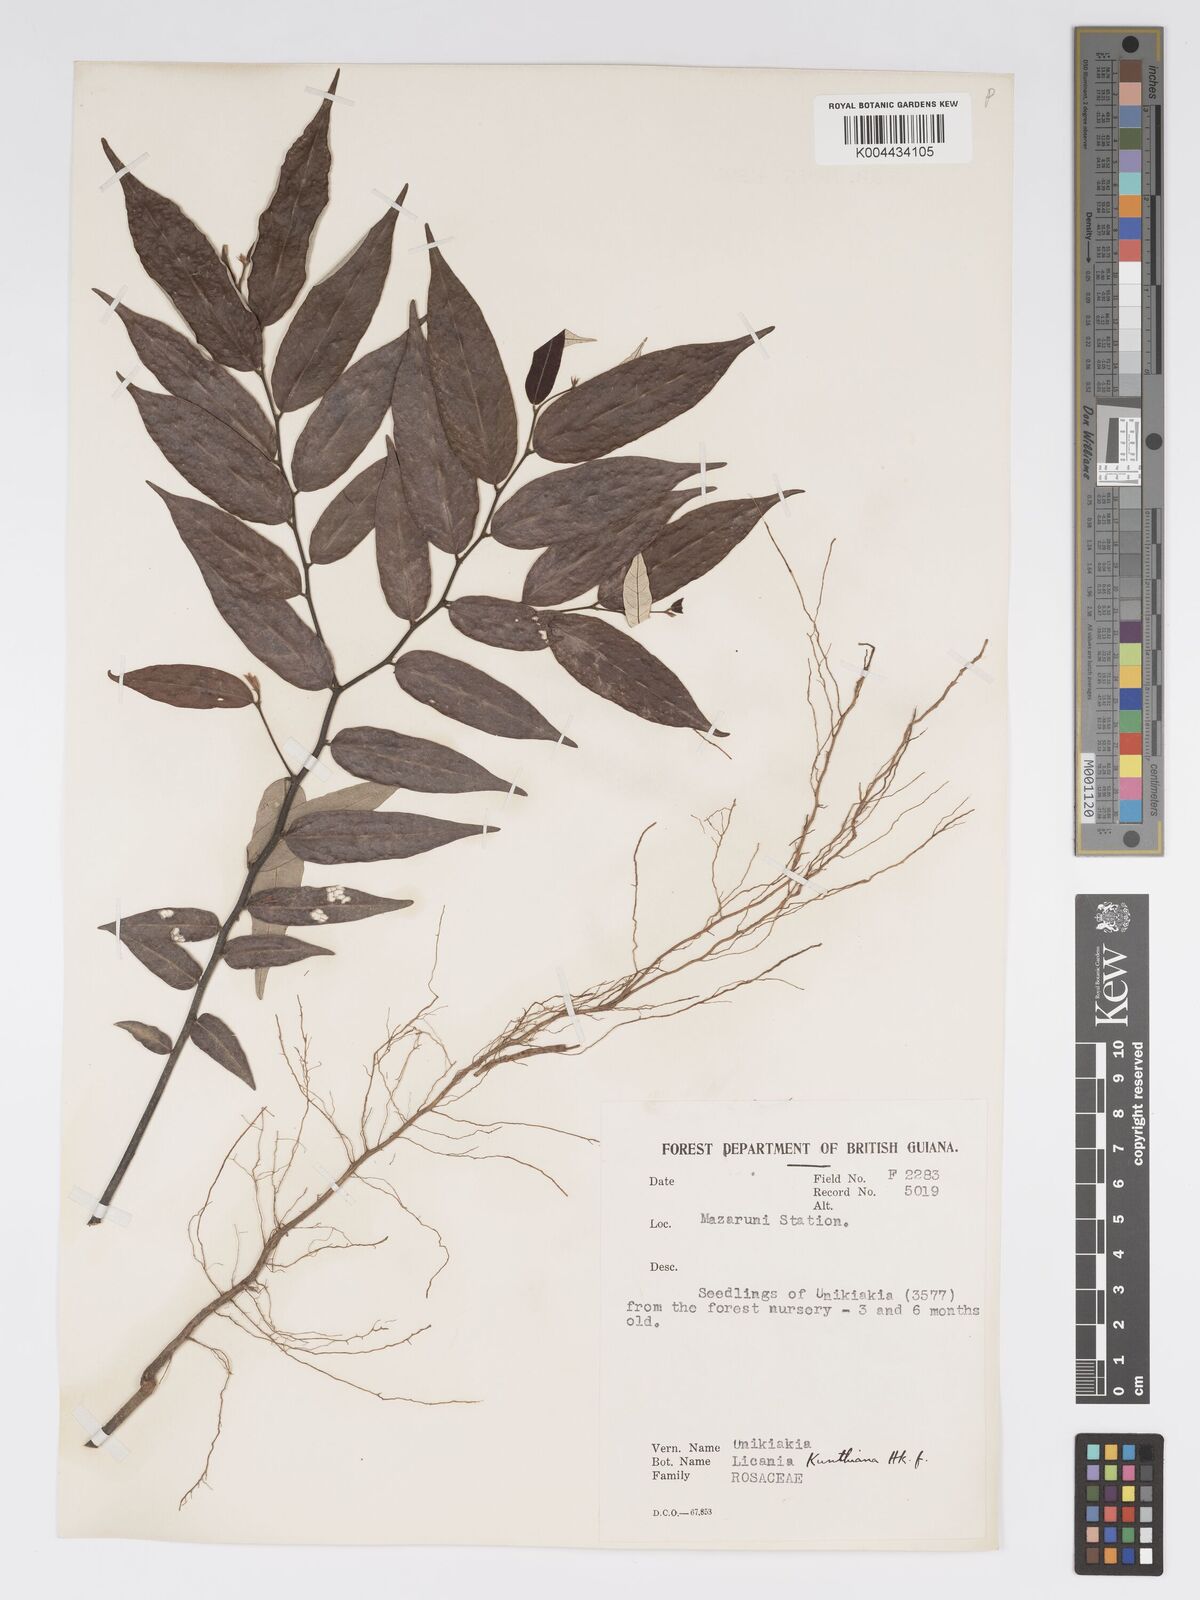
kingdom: Plantae
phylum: Tracheophyta
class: Magnoliopsida
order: Malpighiales
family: Chrysobalanaceae
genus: Licania
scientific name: Licania kunthiana
